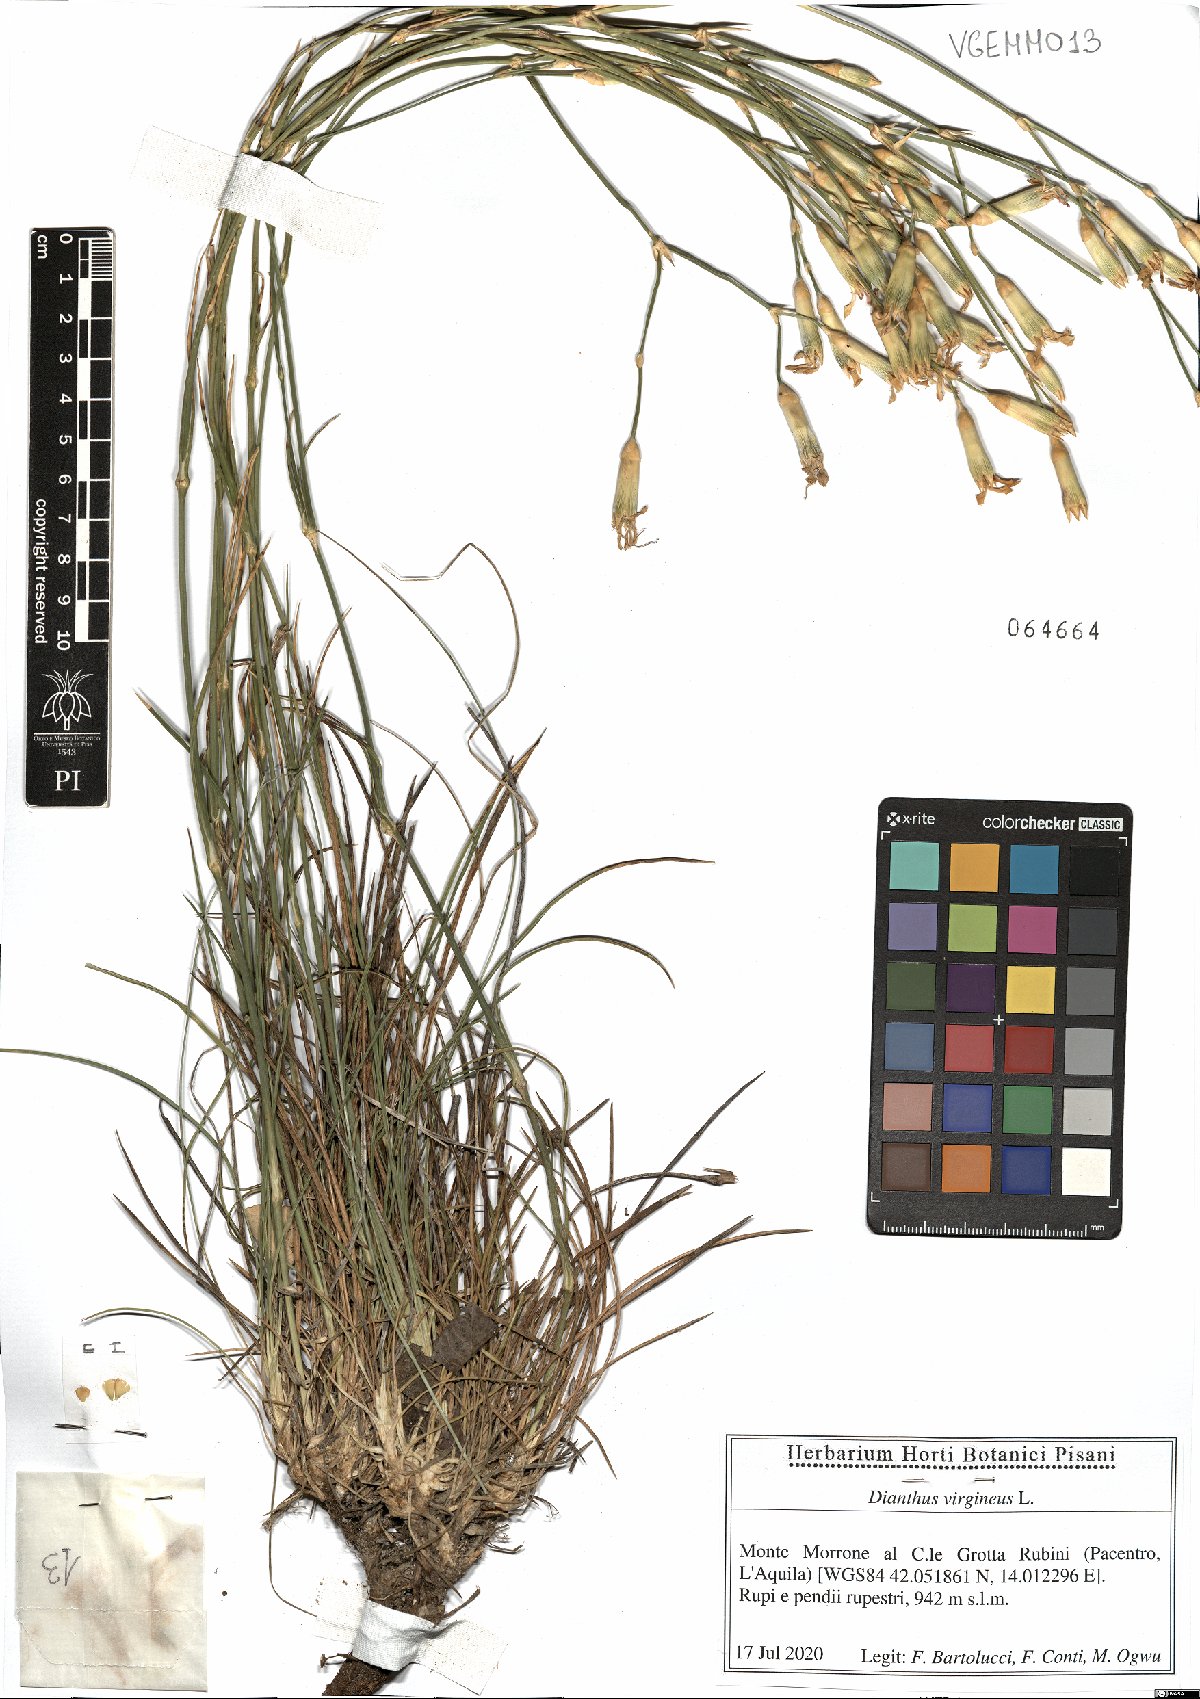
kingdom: Plantae
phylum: Tracheophyta
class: Magnoliopsida
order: Caryophyllales
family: Caryophyllaceae
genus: Dianthus
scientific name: Dianthus virgineus
